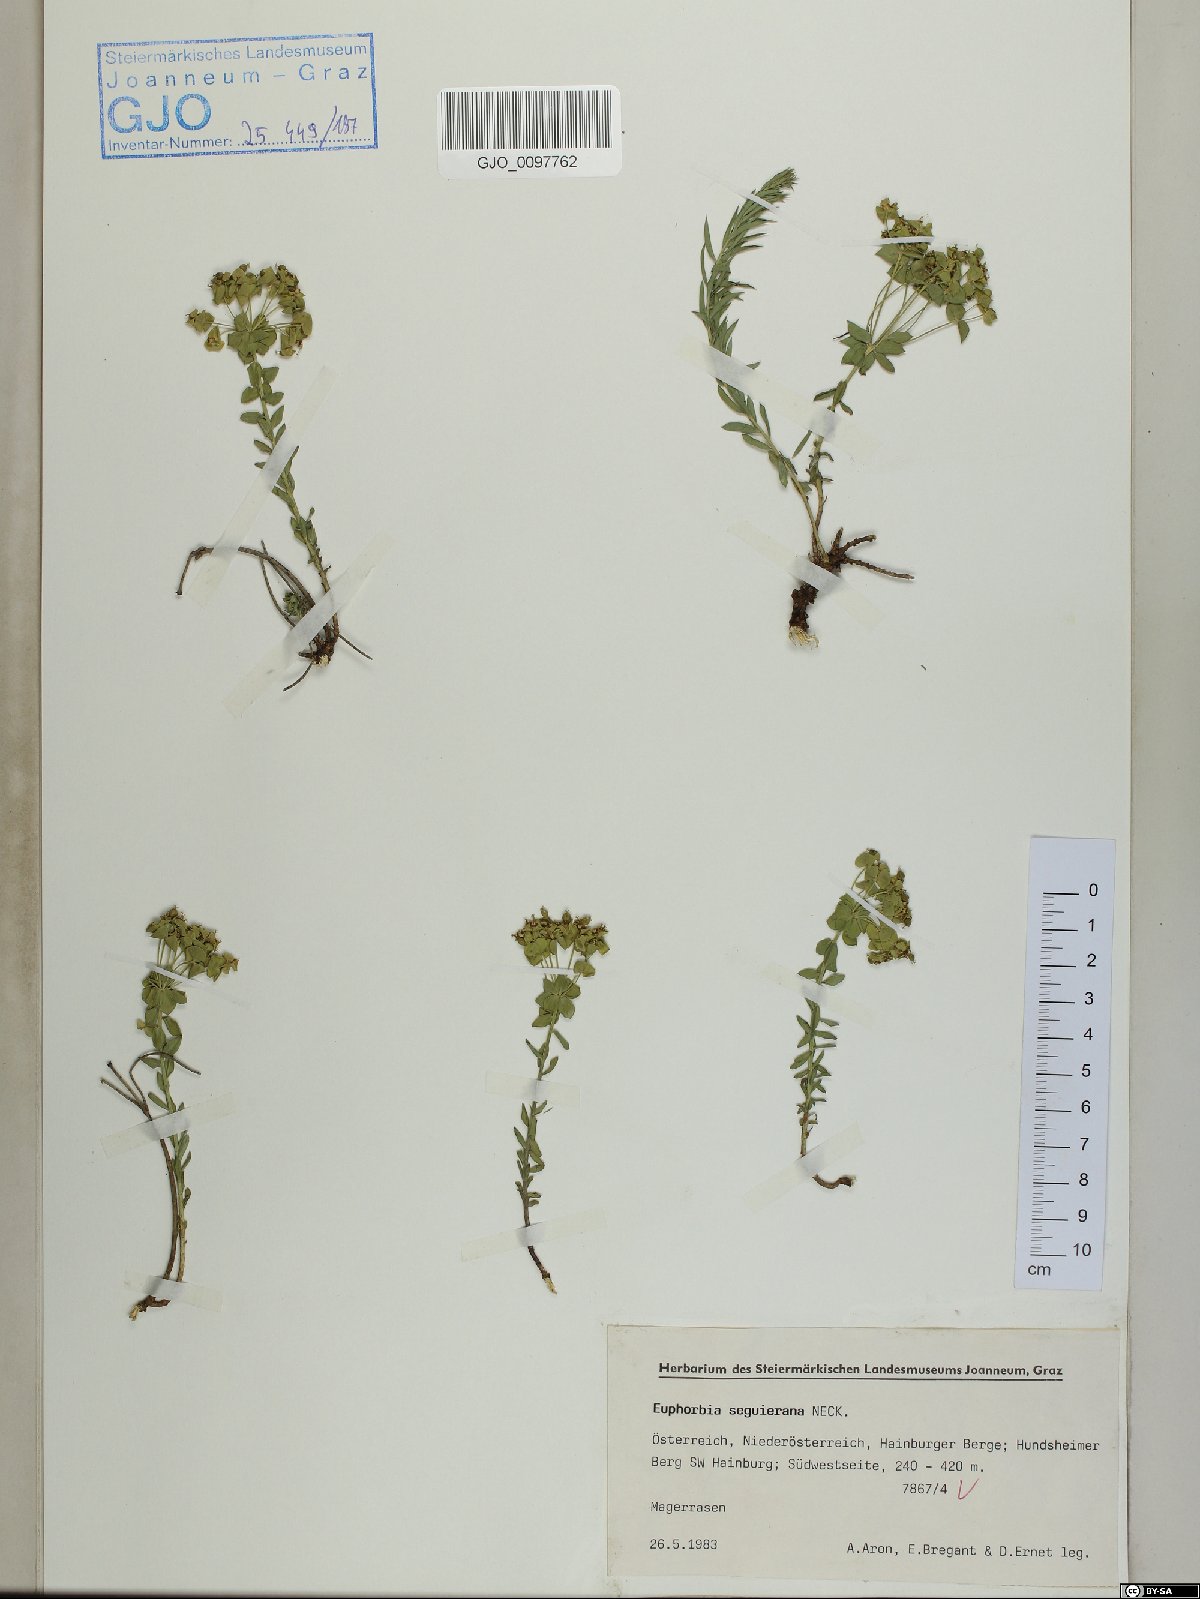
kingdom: Plantae
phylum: Tracheophyta
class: Magnoliopsida
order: Malpighiales
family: Euphorbiaceae
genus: Euphorbia
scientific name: Euphorbia seguieriana
